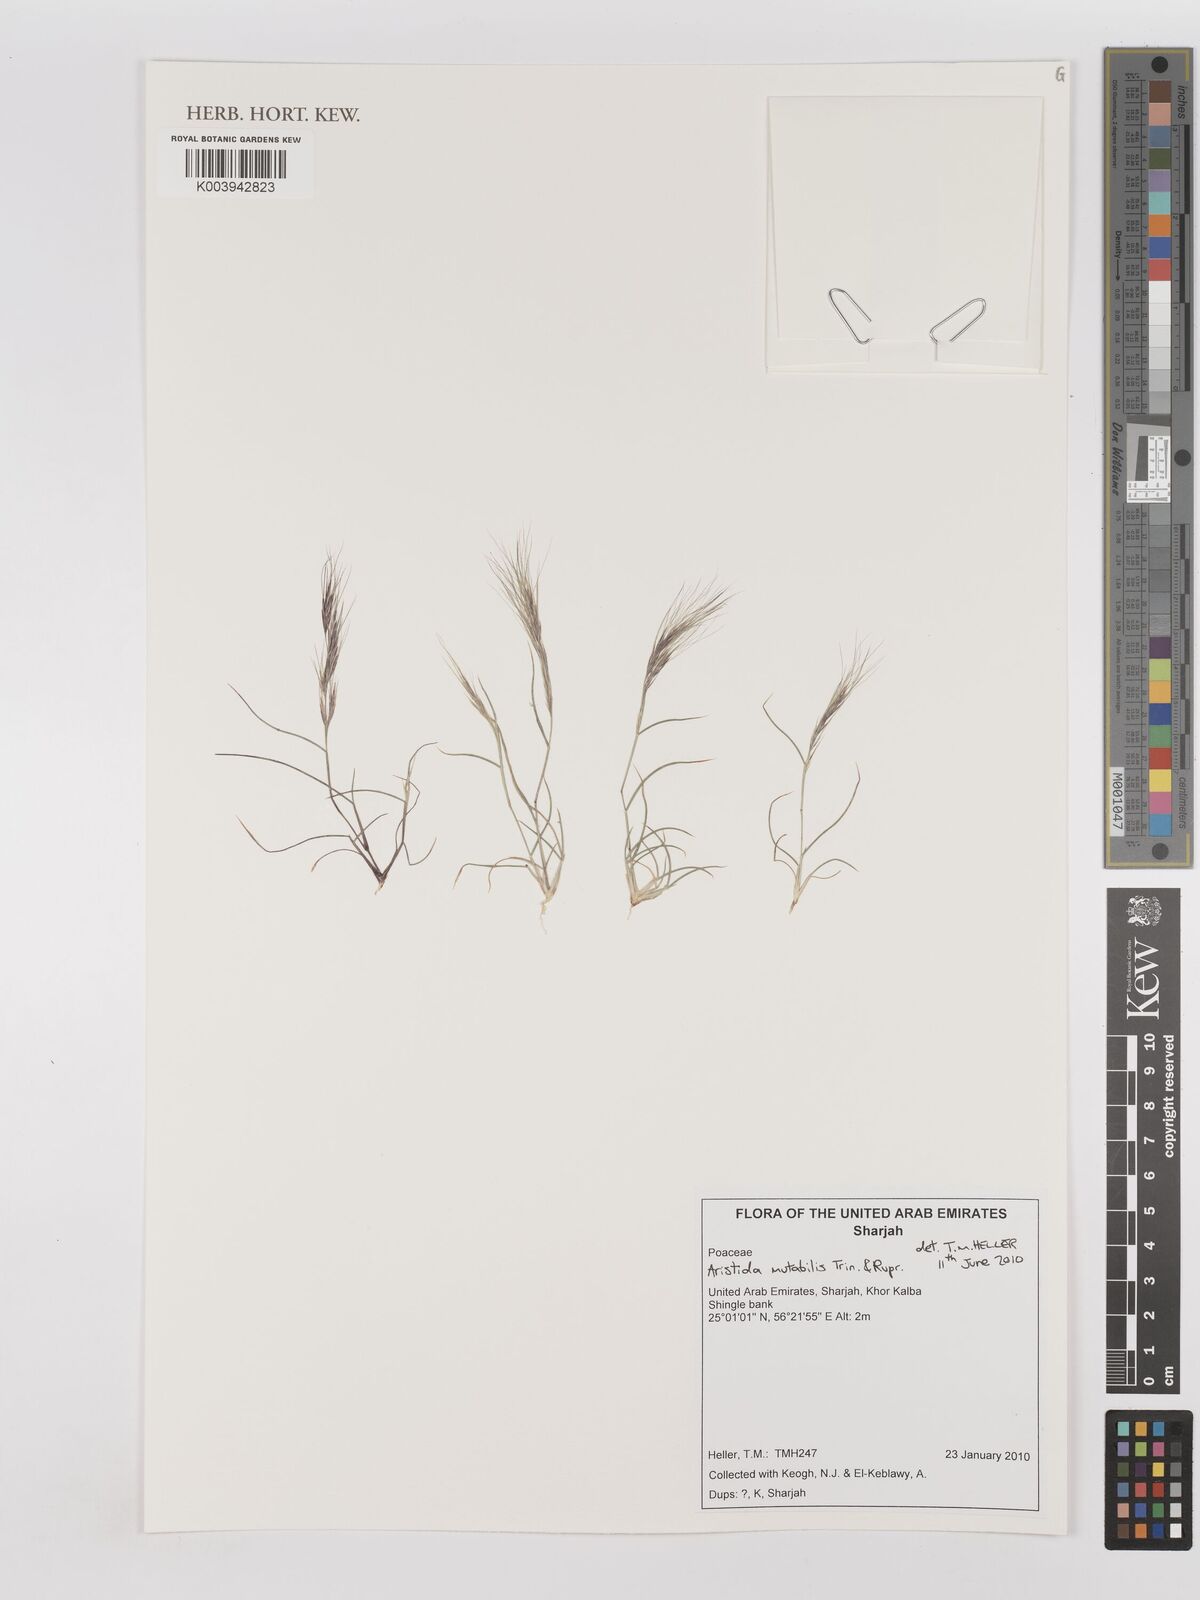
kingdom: Plantae
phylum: Tracheophyta
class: Liliopsida
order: Poales
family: Poaceae
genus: Aristida
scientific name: Aristida mutabilis
